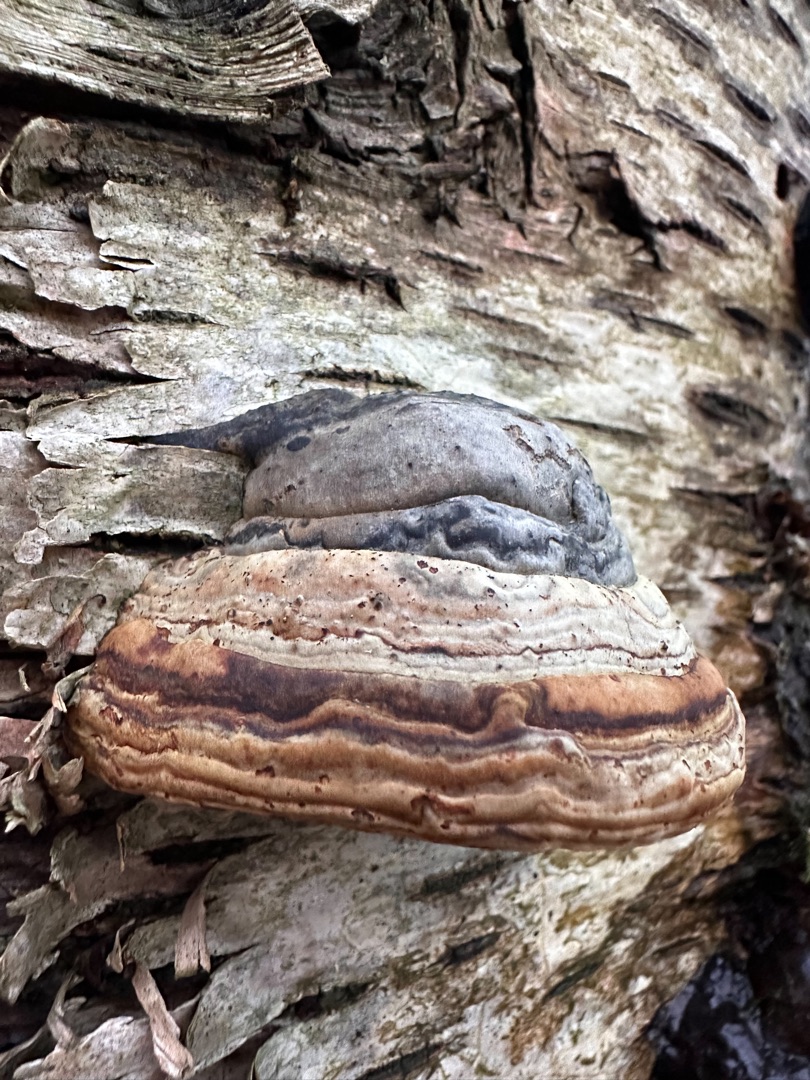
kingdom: Fungi
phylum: Basidiomycota
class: Agaricomycetes
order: Polyporales
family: Polyporaceae
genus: Fomes
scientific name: Fomes fomentarius
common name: Tøndersvamp
